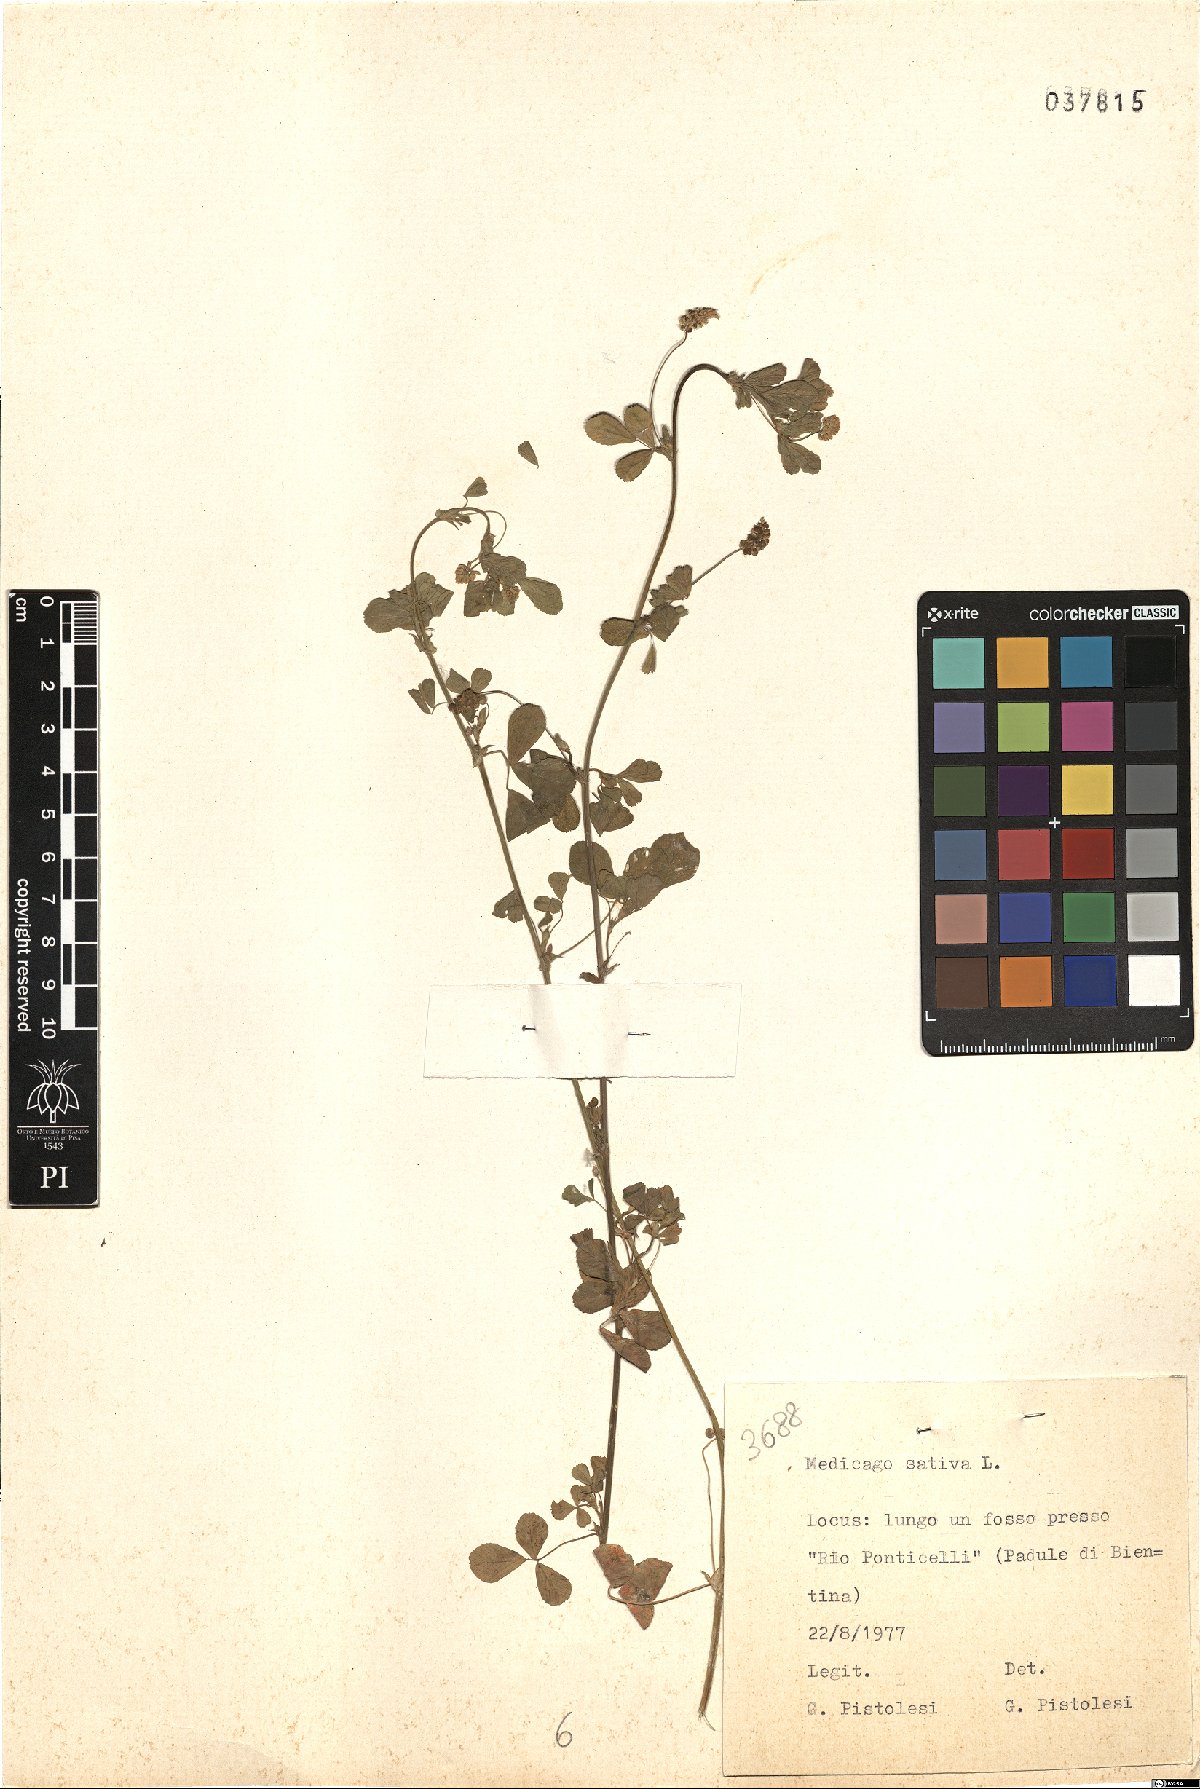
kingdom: Plantae
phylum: Tracheophyta
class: Magnoliopsida
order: Fabales
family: Fabaceae
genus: Medicago
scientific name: Medicago sativa
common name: Alfalfa
